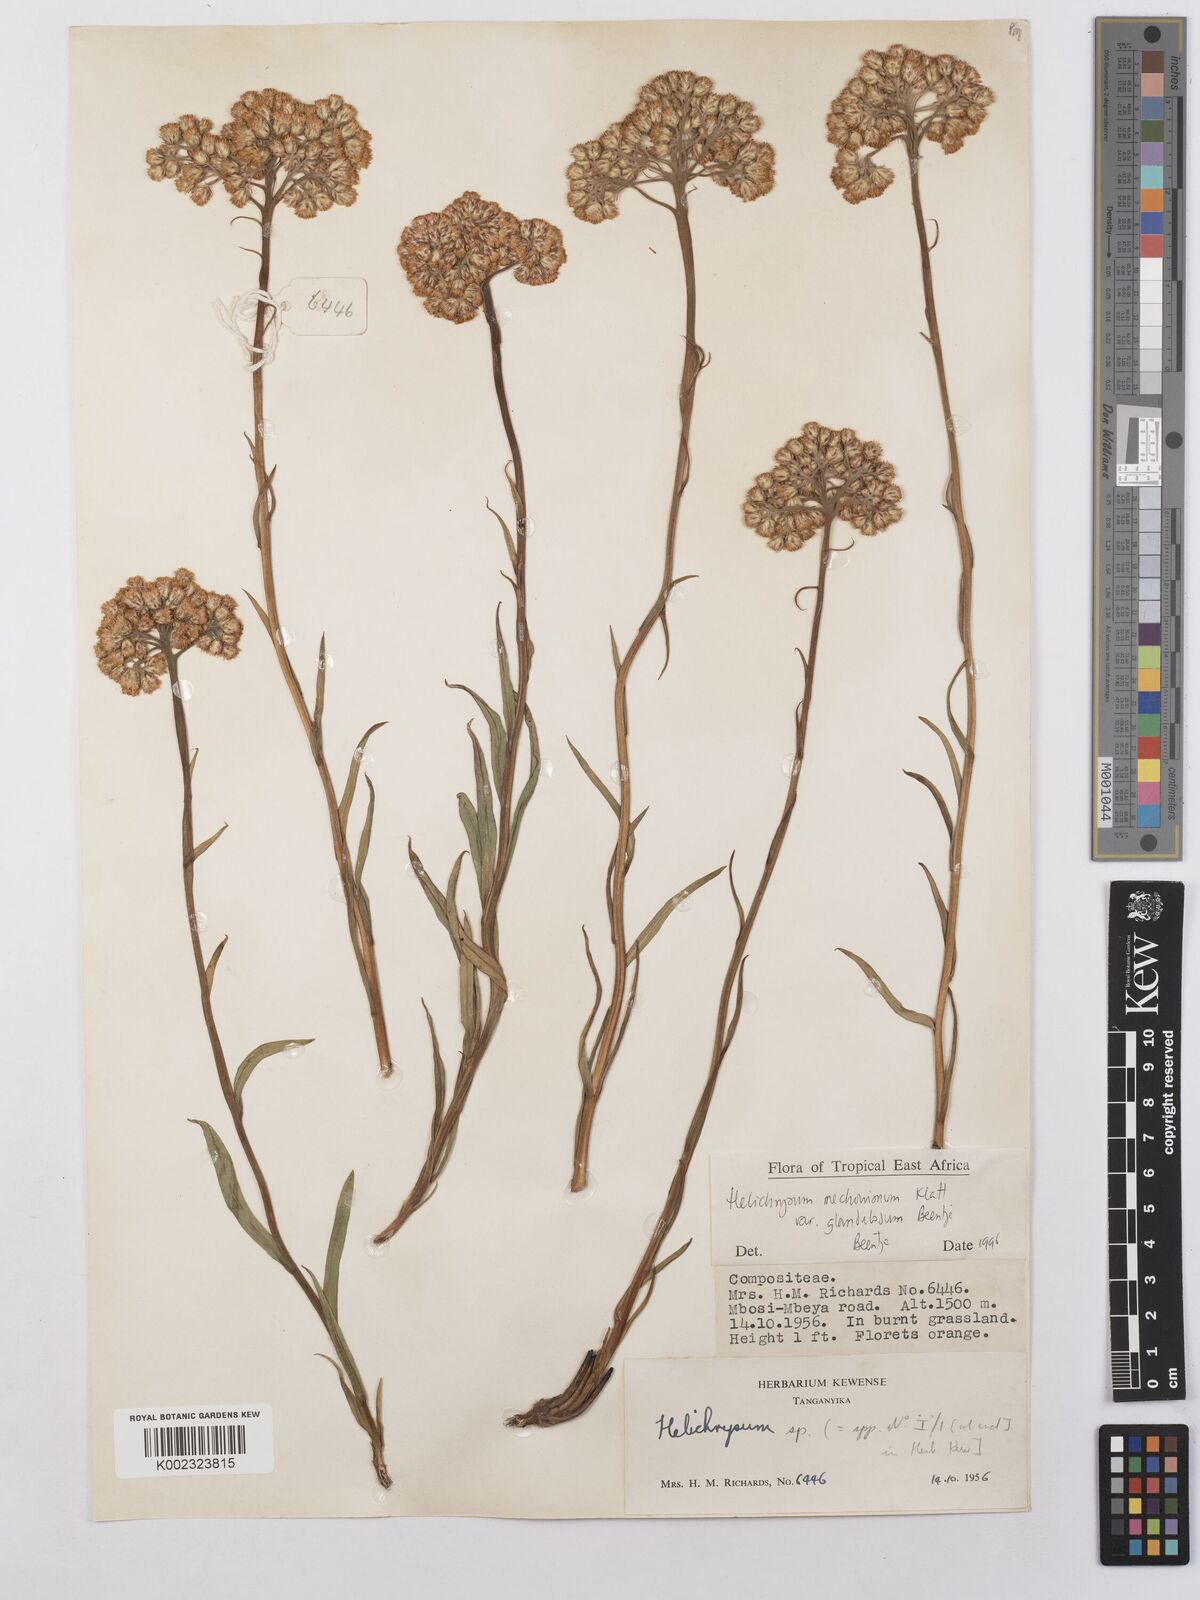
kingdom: Plantae
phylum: Tracheophyta
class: Magnoliopsida
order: Asterales
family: Asteraceae
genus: Helichrysum
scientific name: Helichrysum mechowianum
